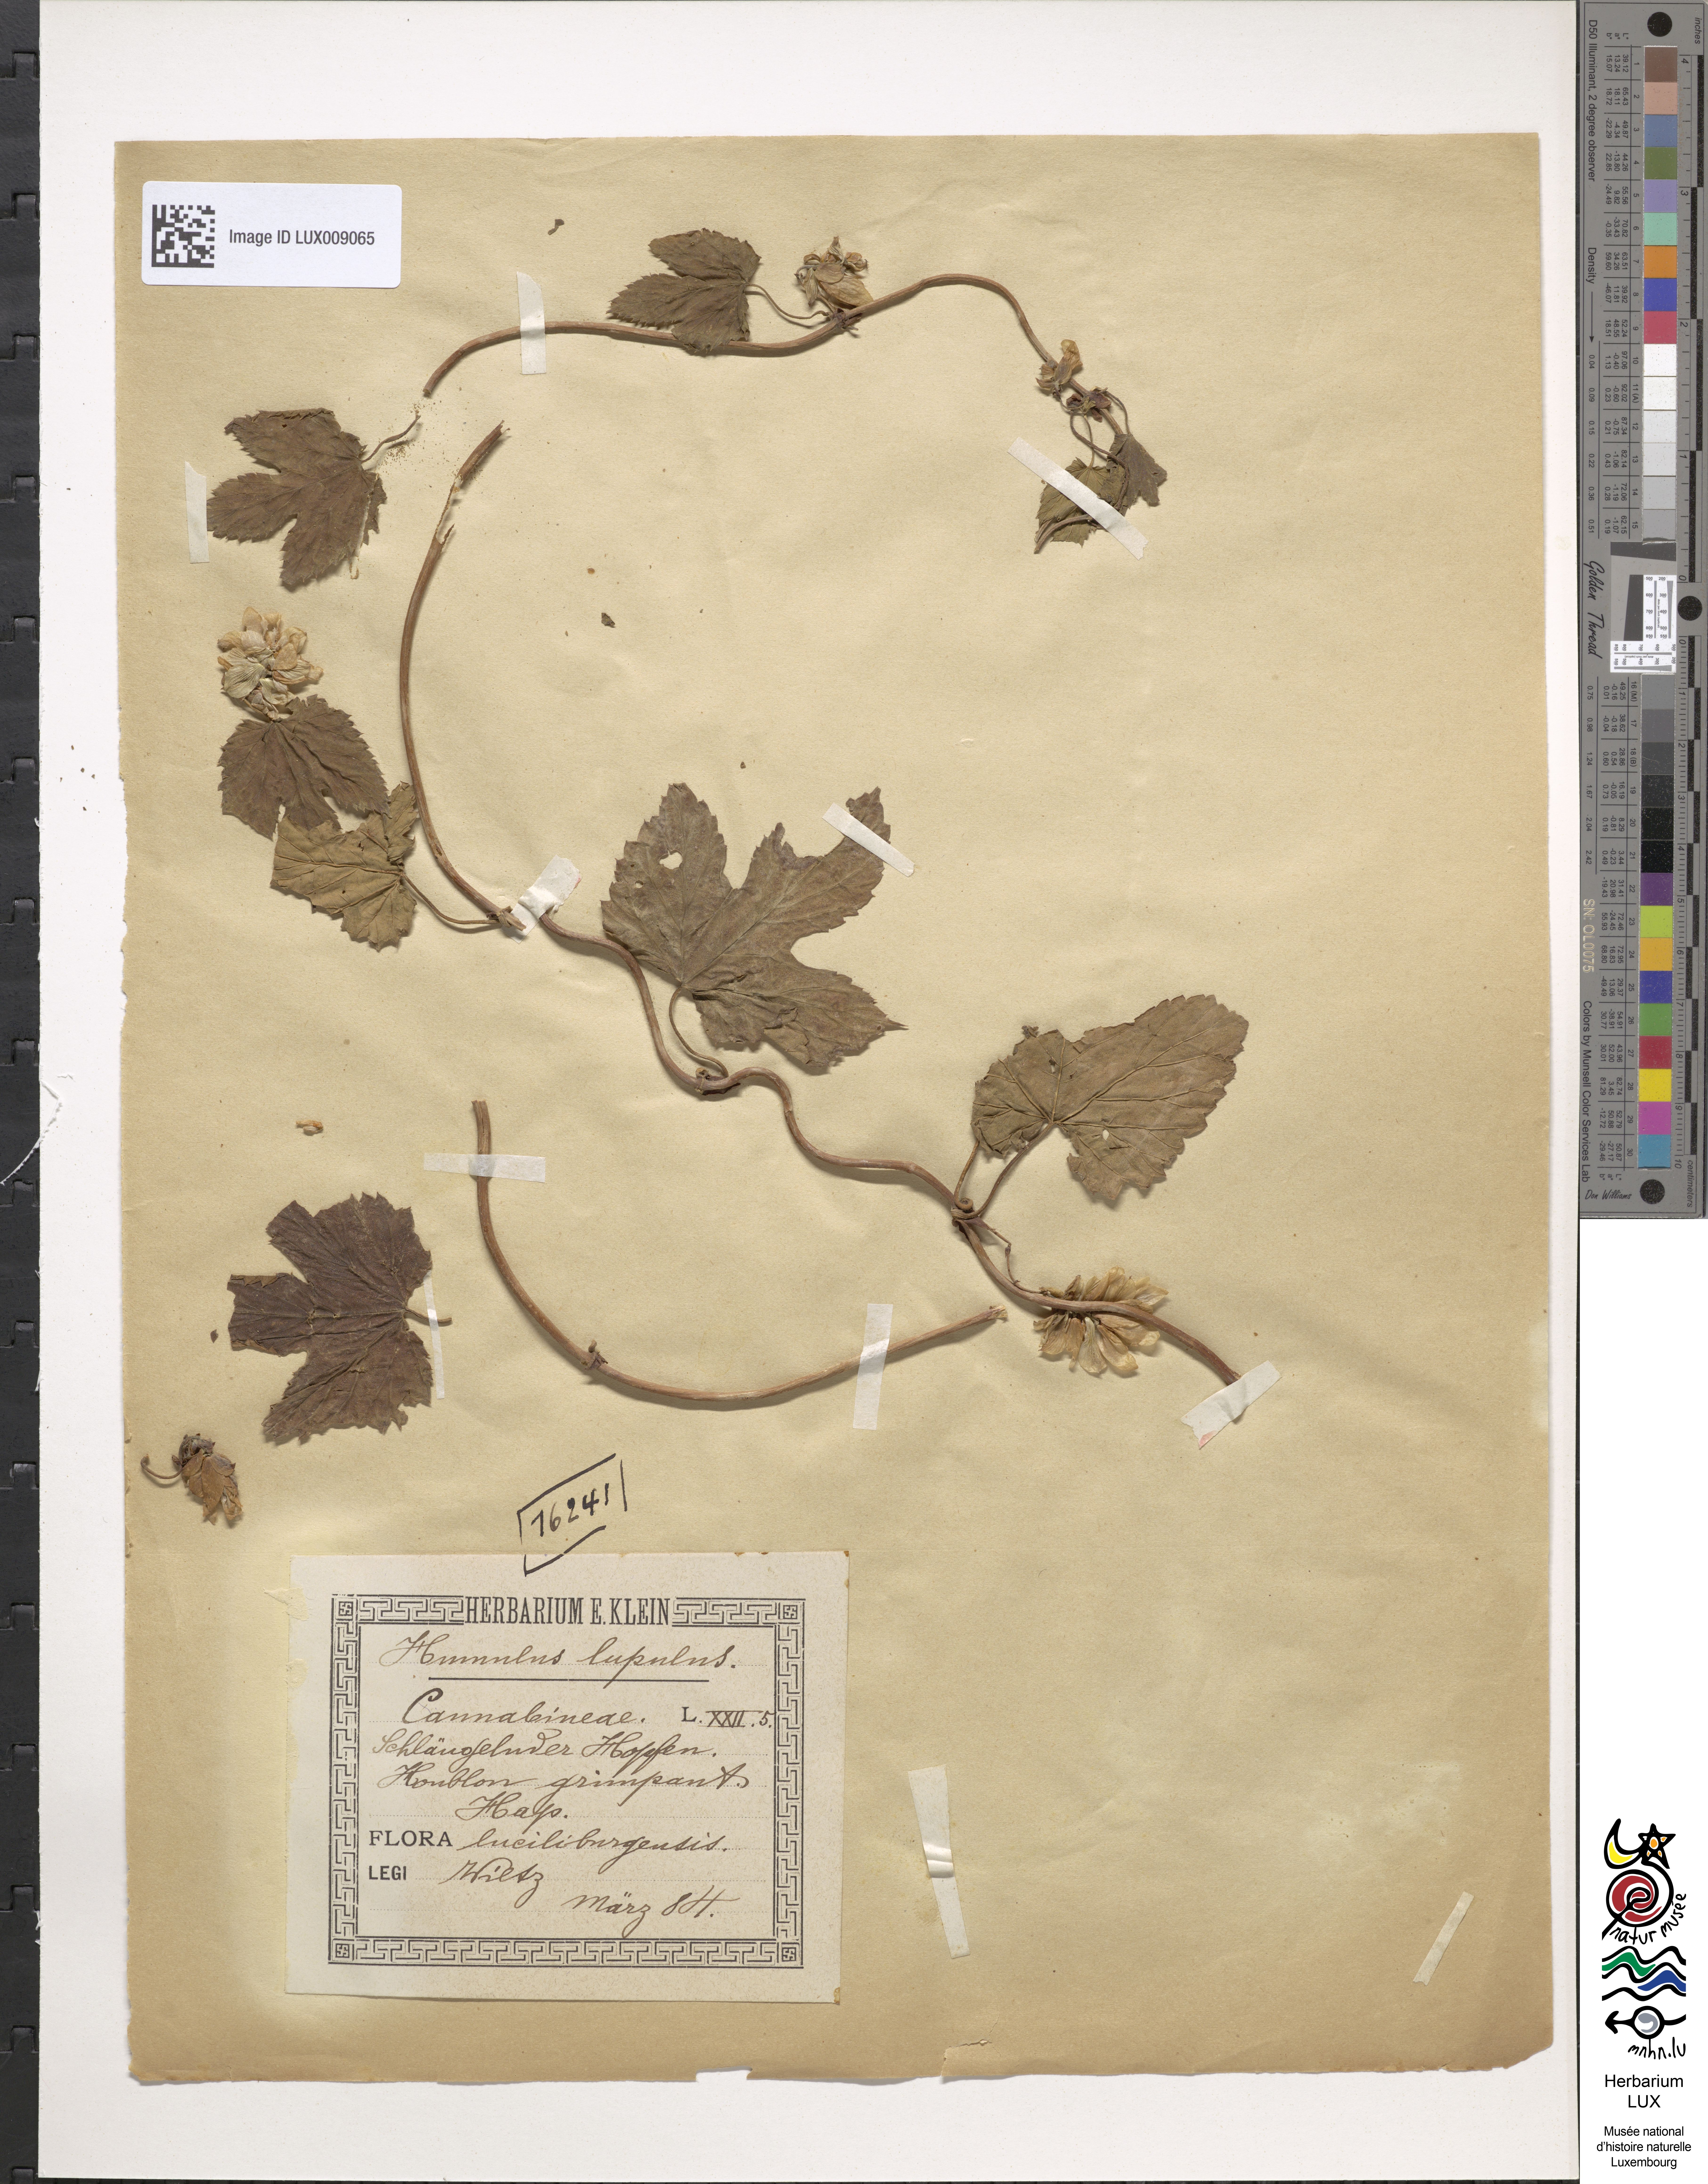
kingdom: Plantae
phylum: Tracheophyta
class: Magnoliopsida
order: Rosales
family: Cannabaceae
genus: Humulus
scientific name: Humulus lupulus
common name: Hop
